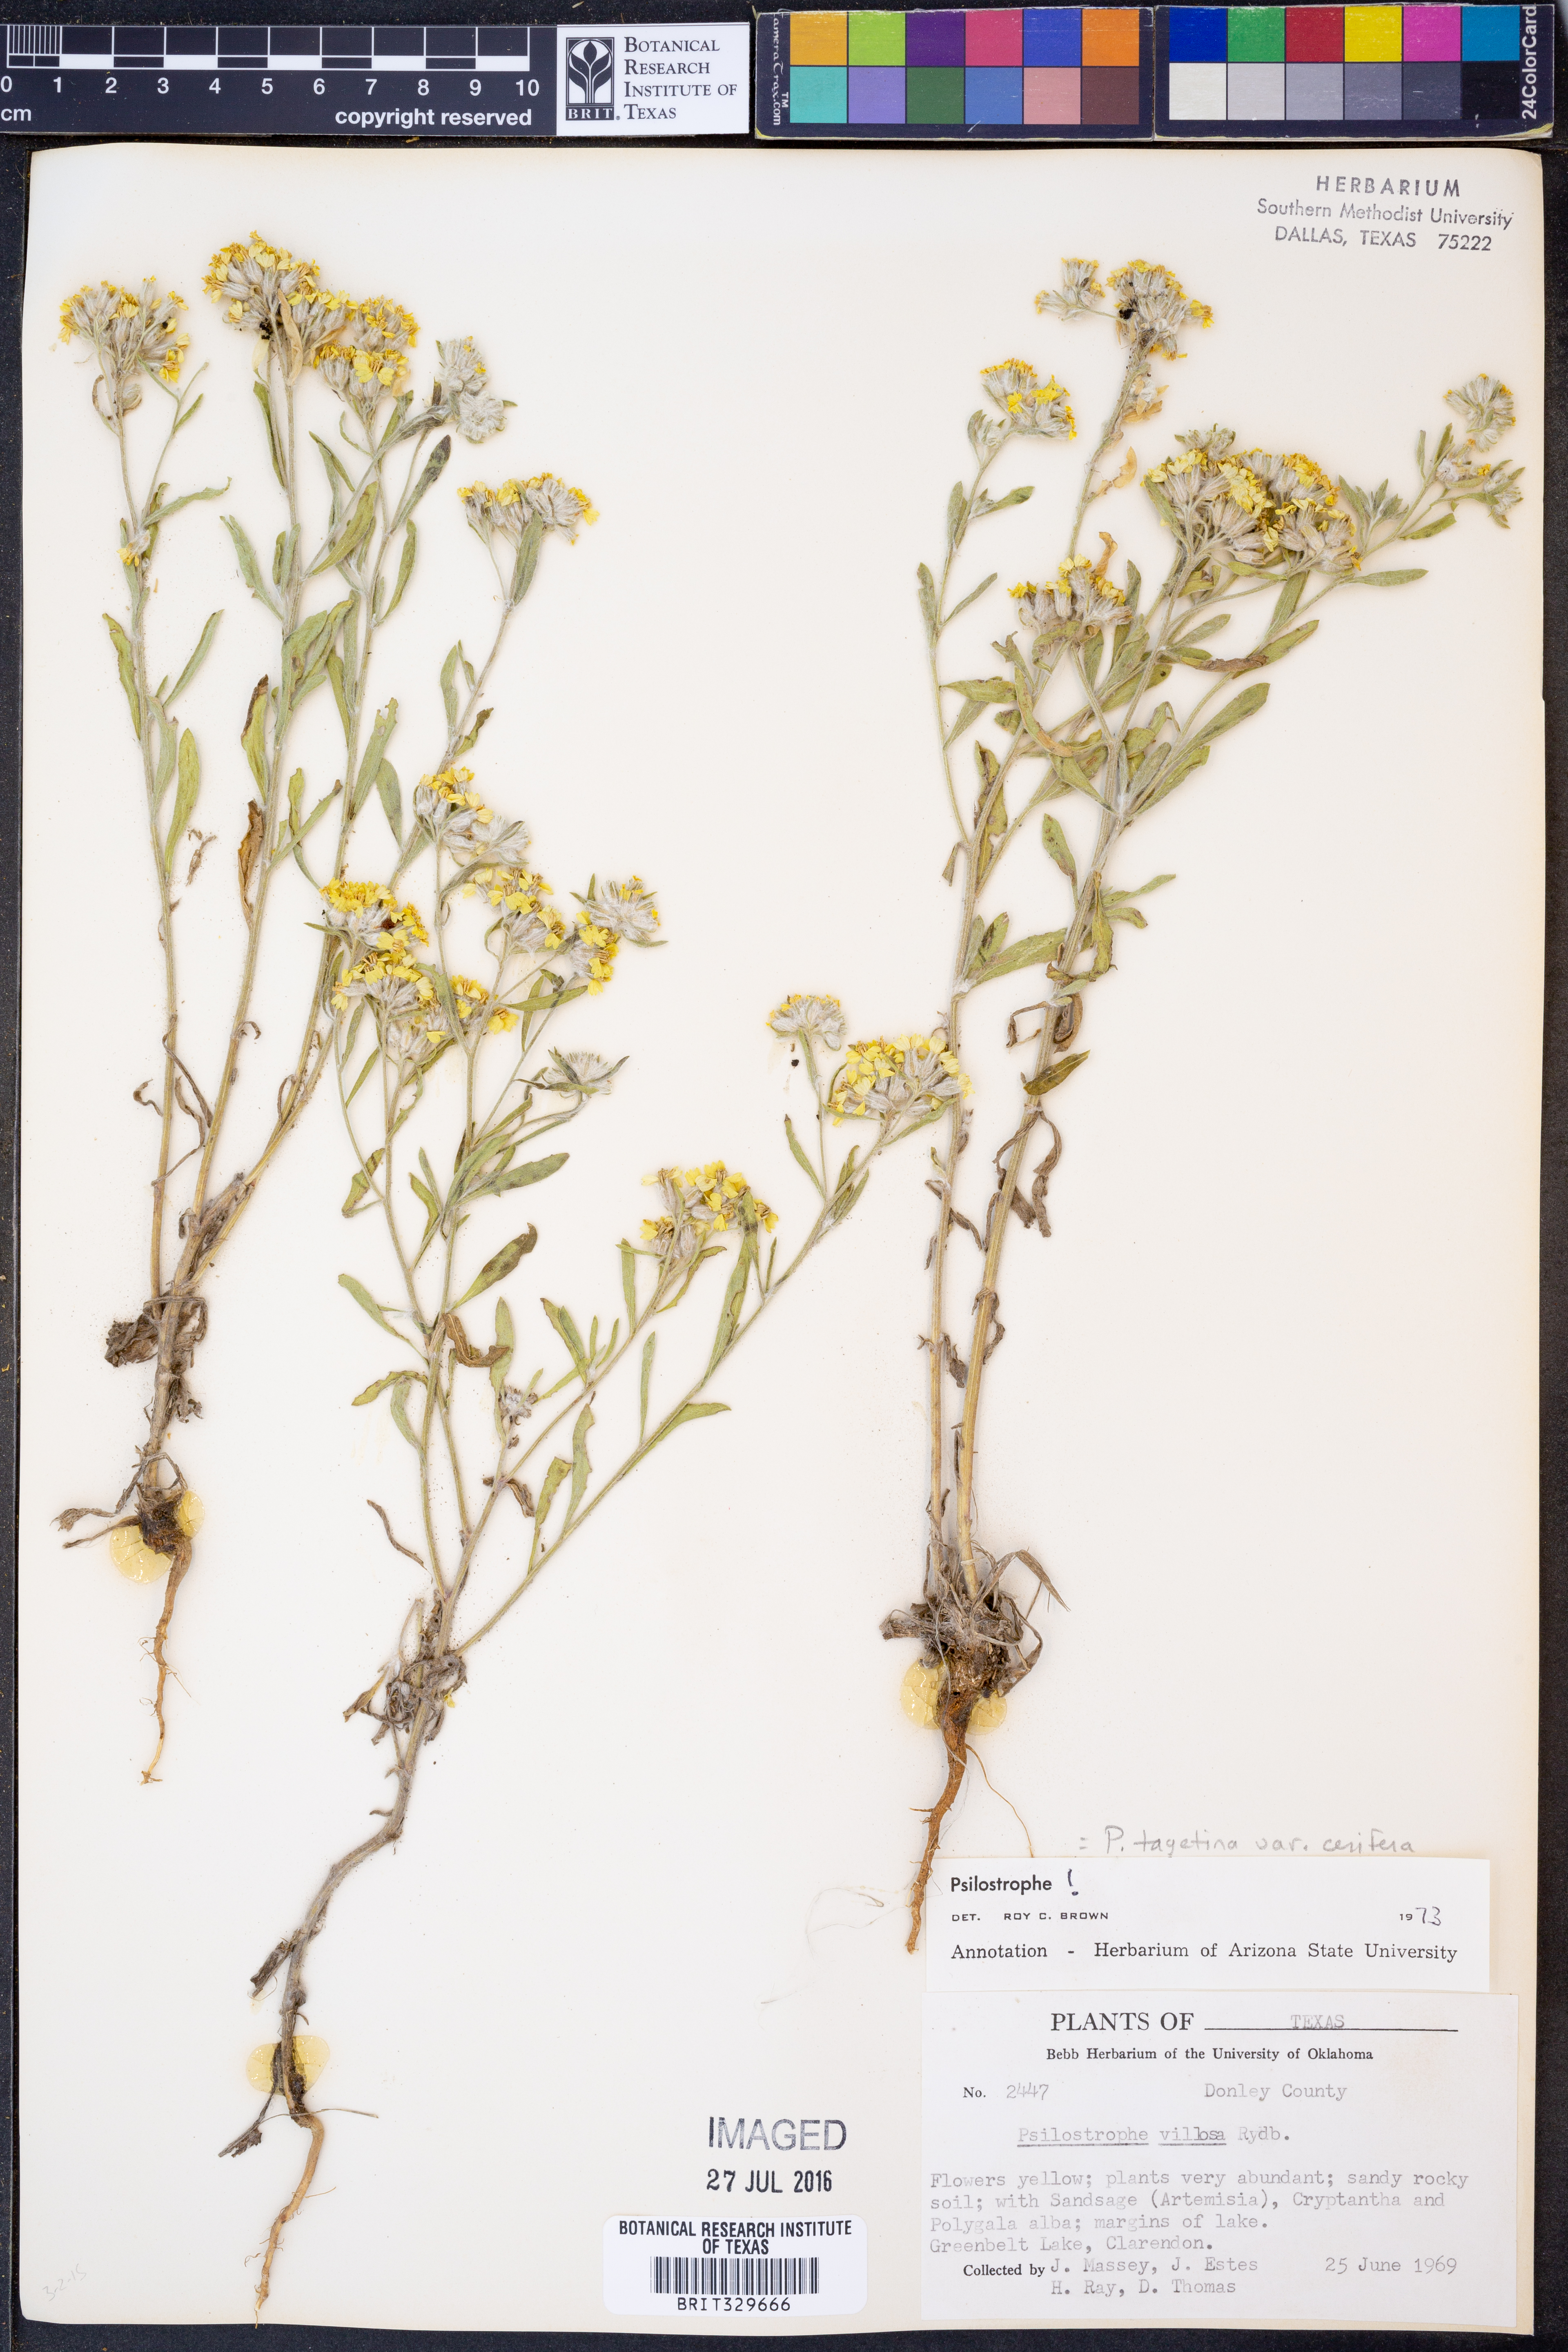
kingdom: Plantae
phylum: Tracheophyta
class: Magnoliopsida
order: Asterales
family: Asteraceae
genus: Psilostrophe
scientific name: Psilostrophe villosa
